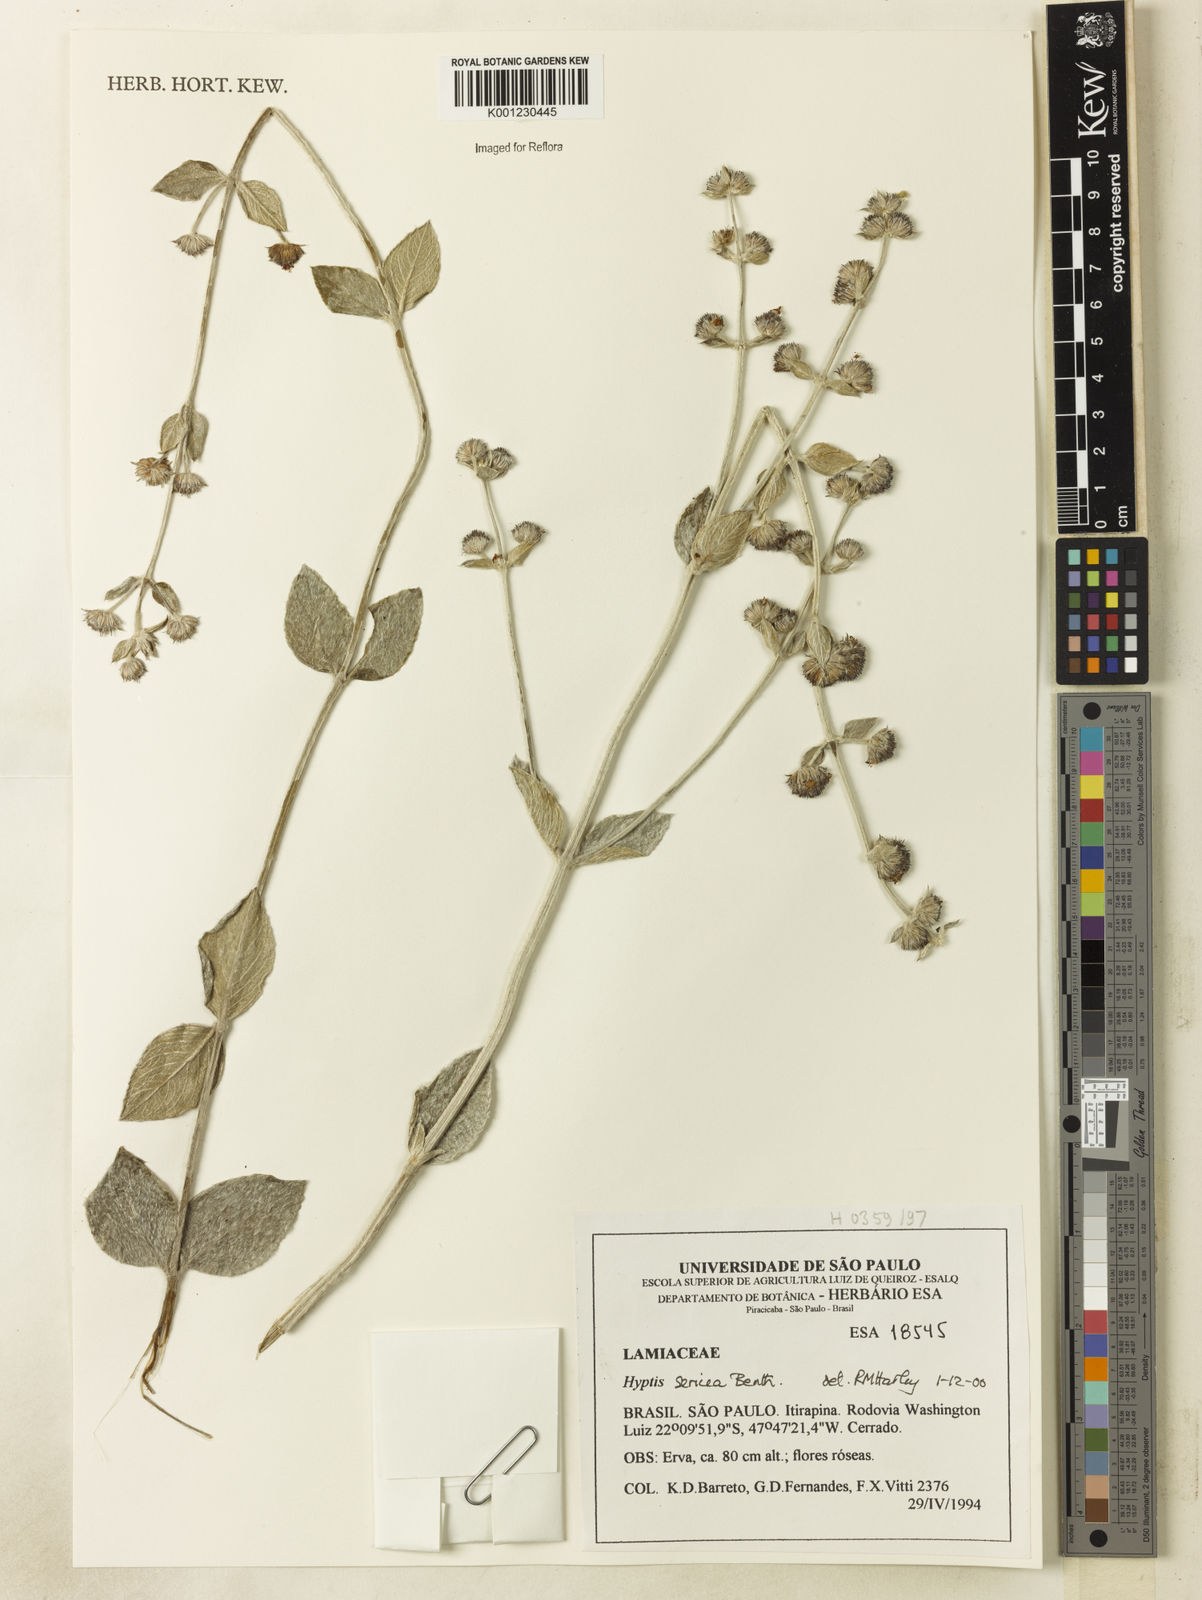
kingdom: Plantae
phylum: Tracheophyta
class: Magnoliopsida
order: Lamiales
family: Lamiaceae
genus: Hyptis
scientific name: Hyptis sericea
